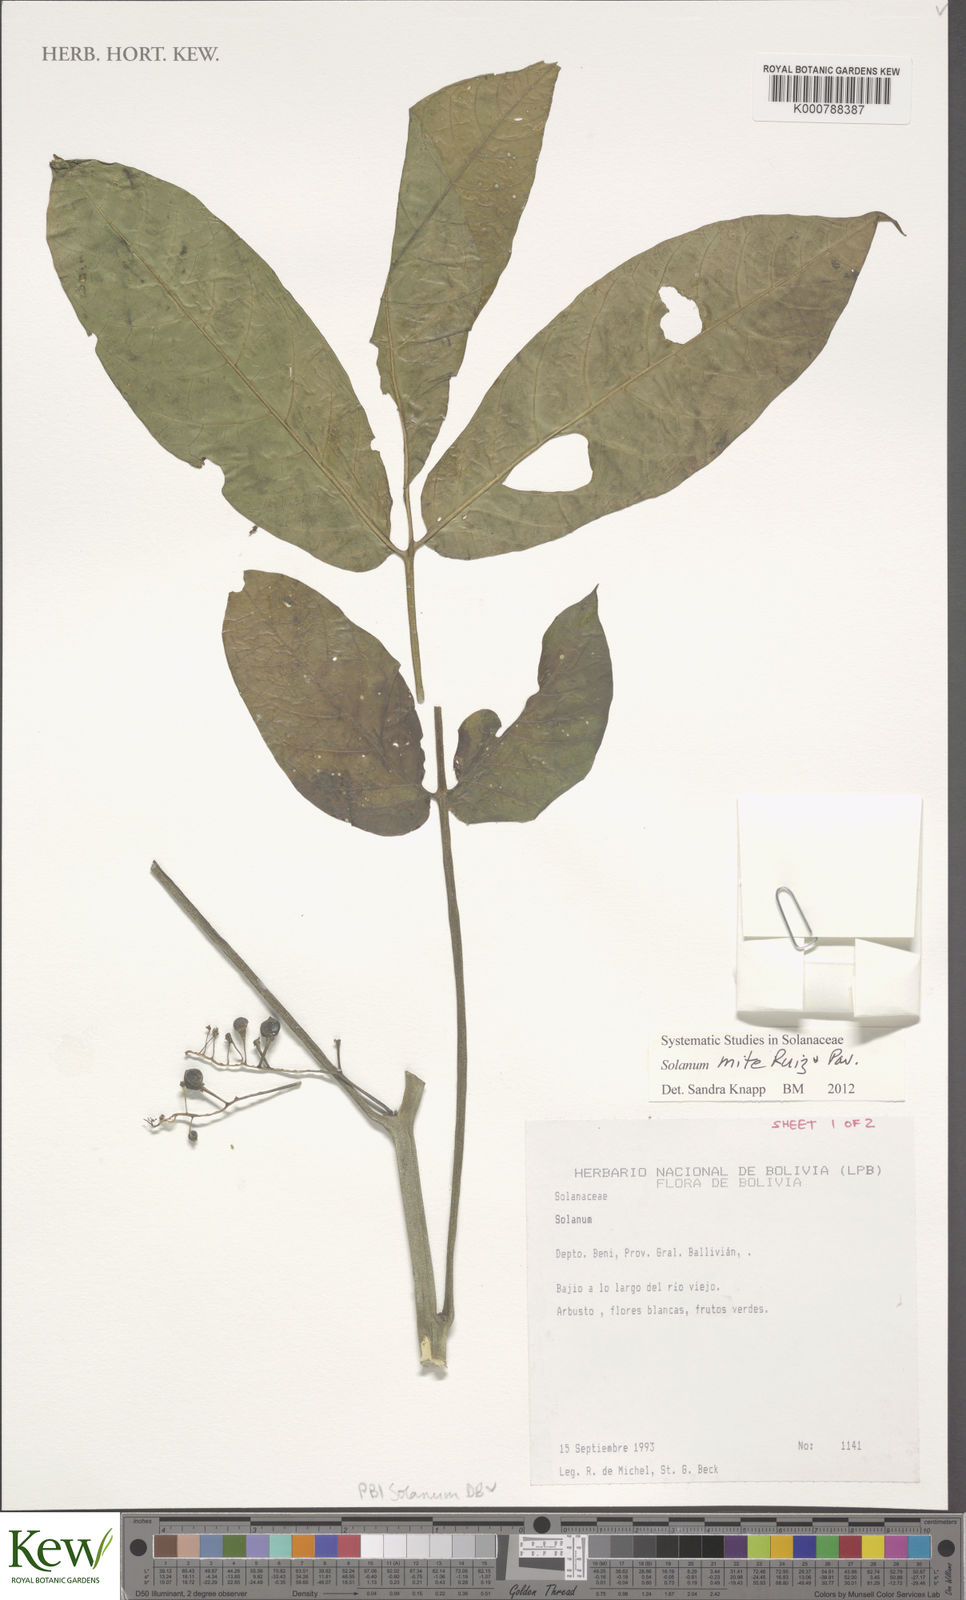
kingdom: Plantae
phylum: Tracheophyta
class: Magnoliopsida
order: Solanales
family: Solanaceae
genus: Solanum
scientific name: Solanum mite
